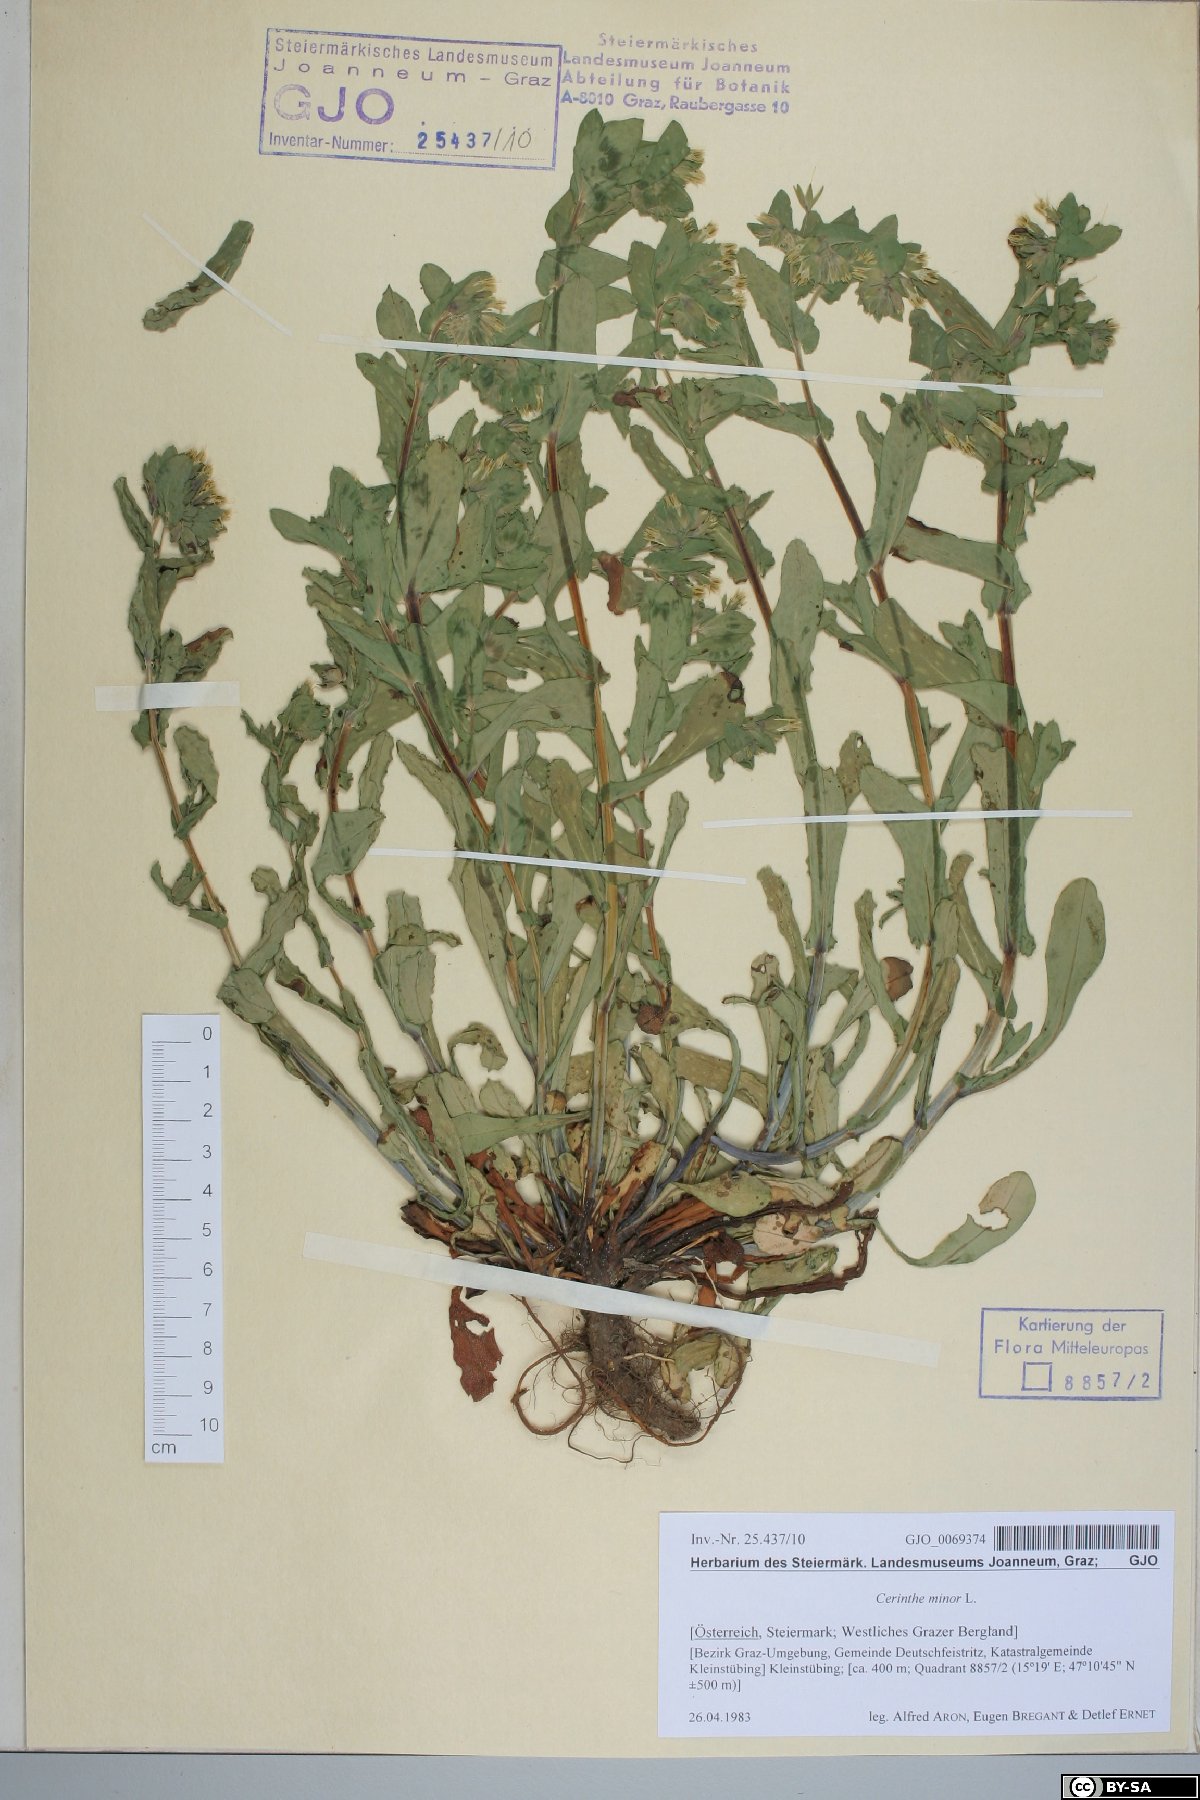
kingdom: Plantae
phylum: Tracheophyta
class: Magnoliopsida
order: Boraginales
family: Boraginaceae
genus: Cerinthe
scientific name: Cerinthe minor
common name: Lesser honeywort
